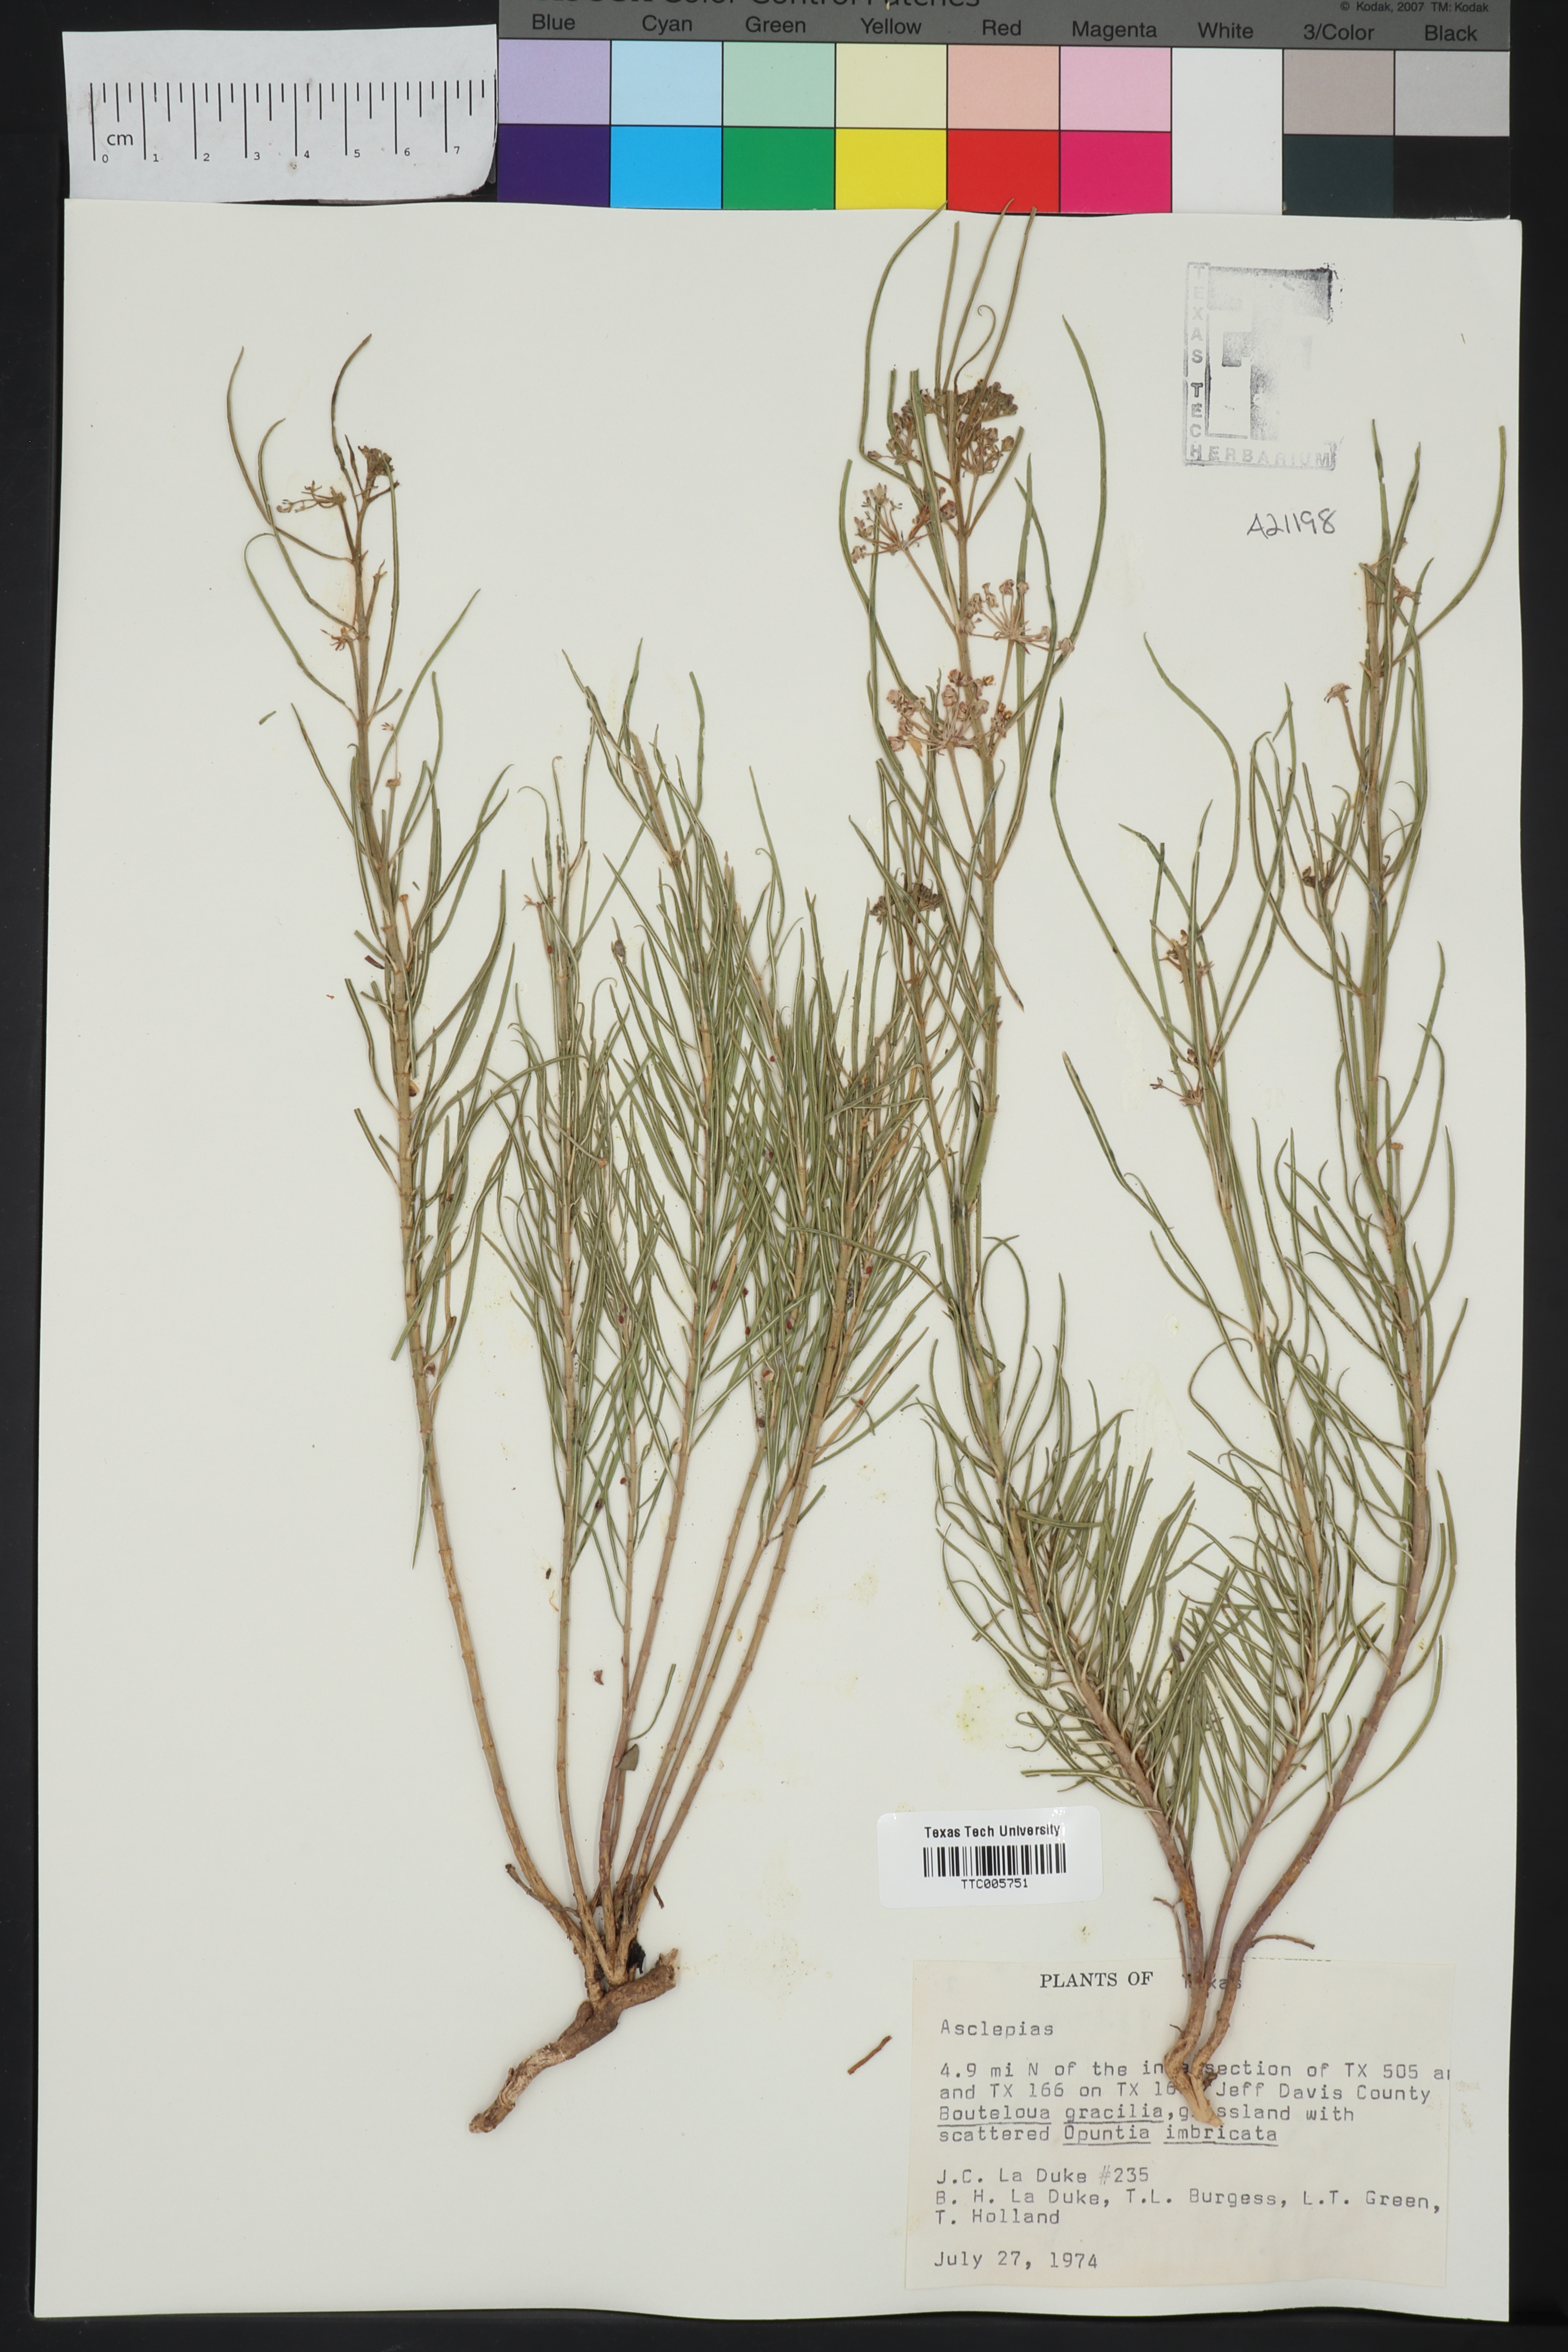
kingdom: Plantae
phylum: Tracheophyta
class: Magnoliopsida
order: Gentianales
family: Apocynaceae
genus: Asclepias
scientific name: Asclepias
